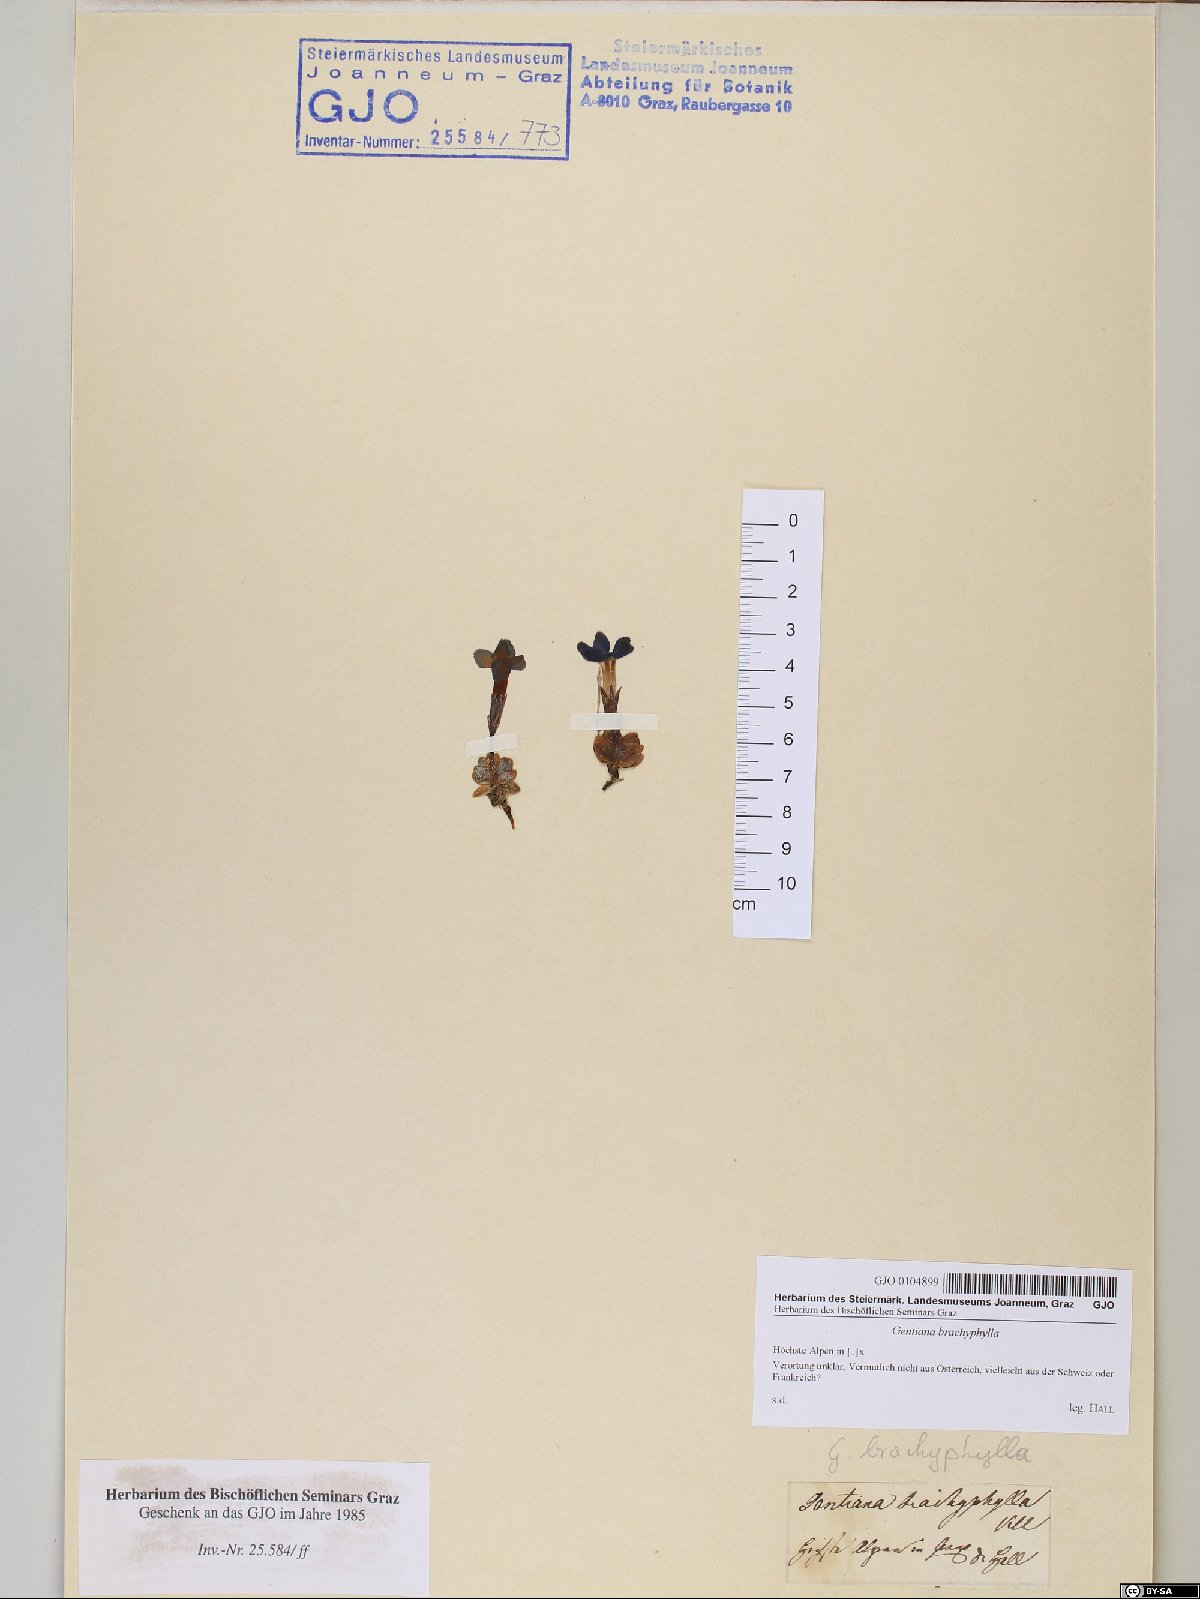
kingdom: Plantae
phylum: Tracheophyta
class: Magnoliopsida
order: Gentianales
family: Gentianaceae
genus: Gentiana
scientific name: Gentiana brachyphylla
